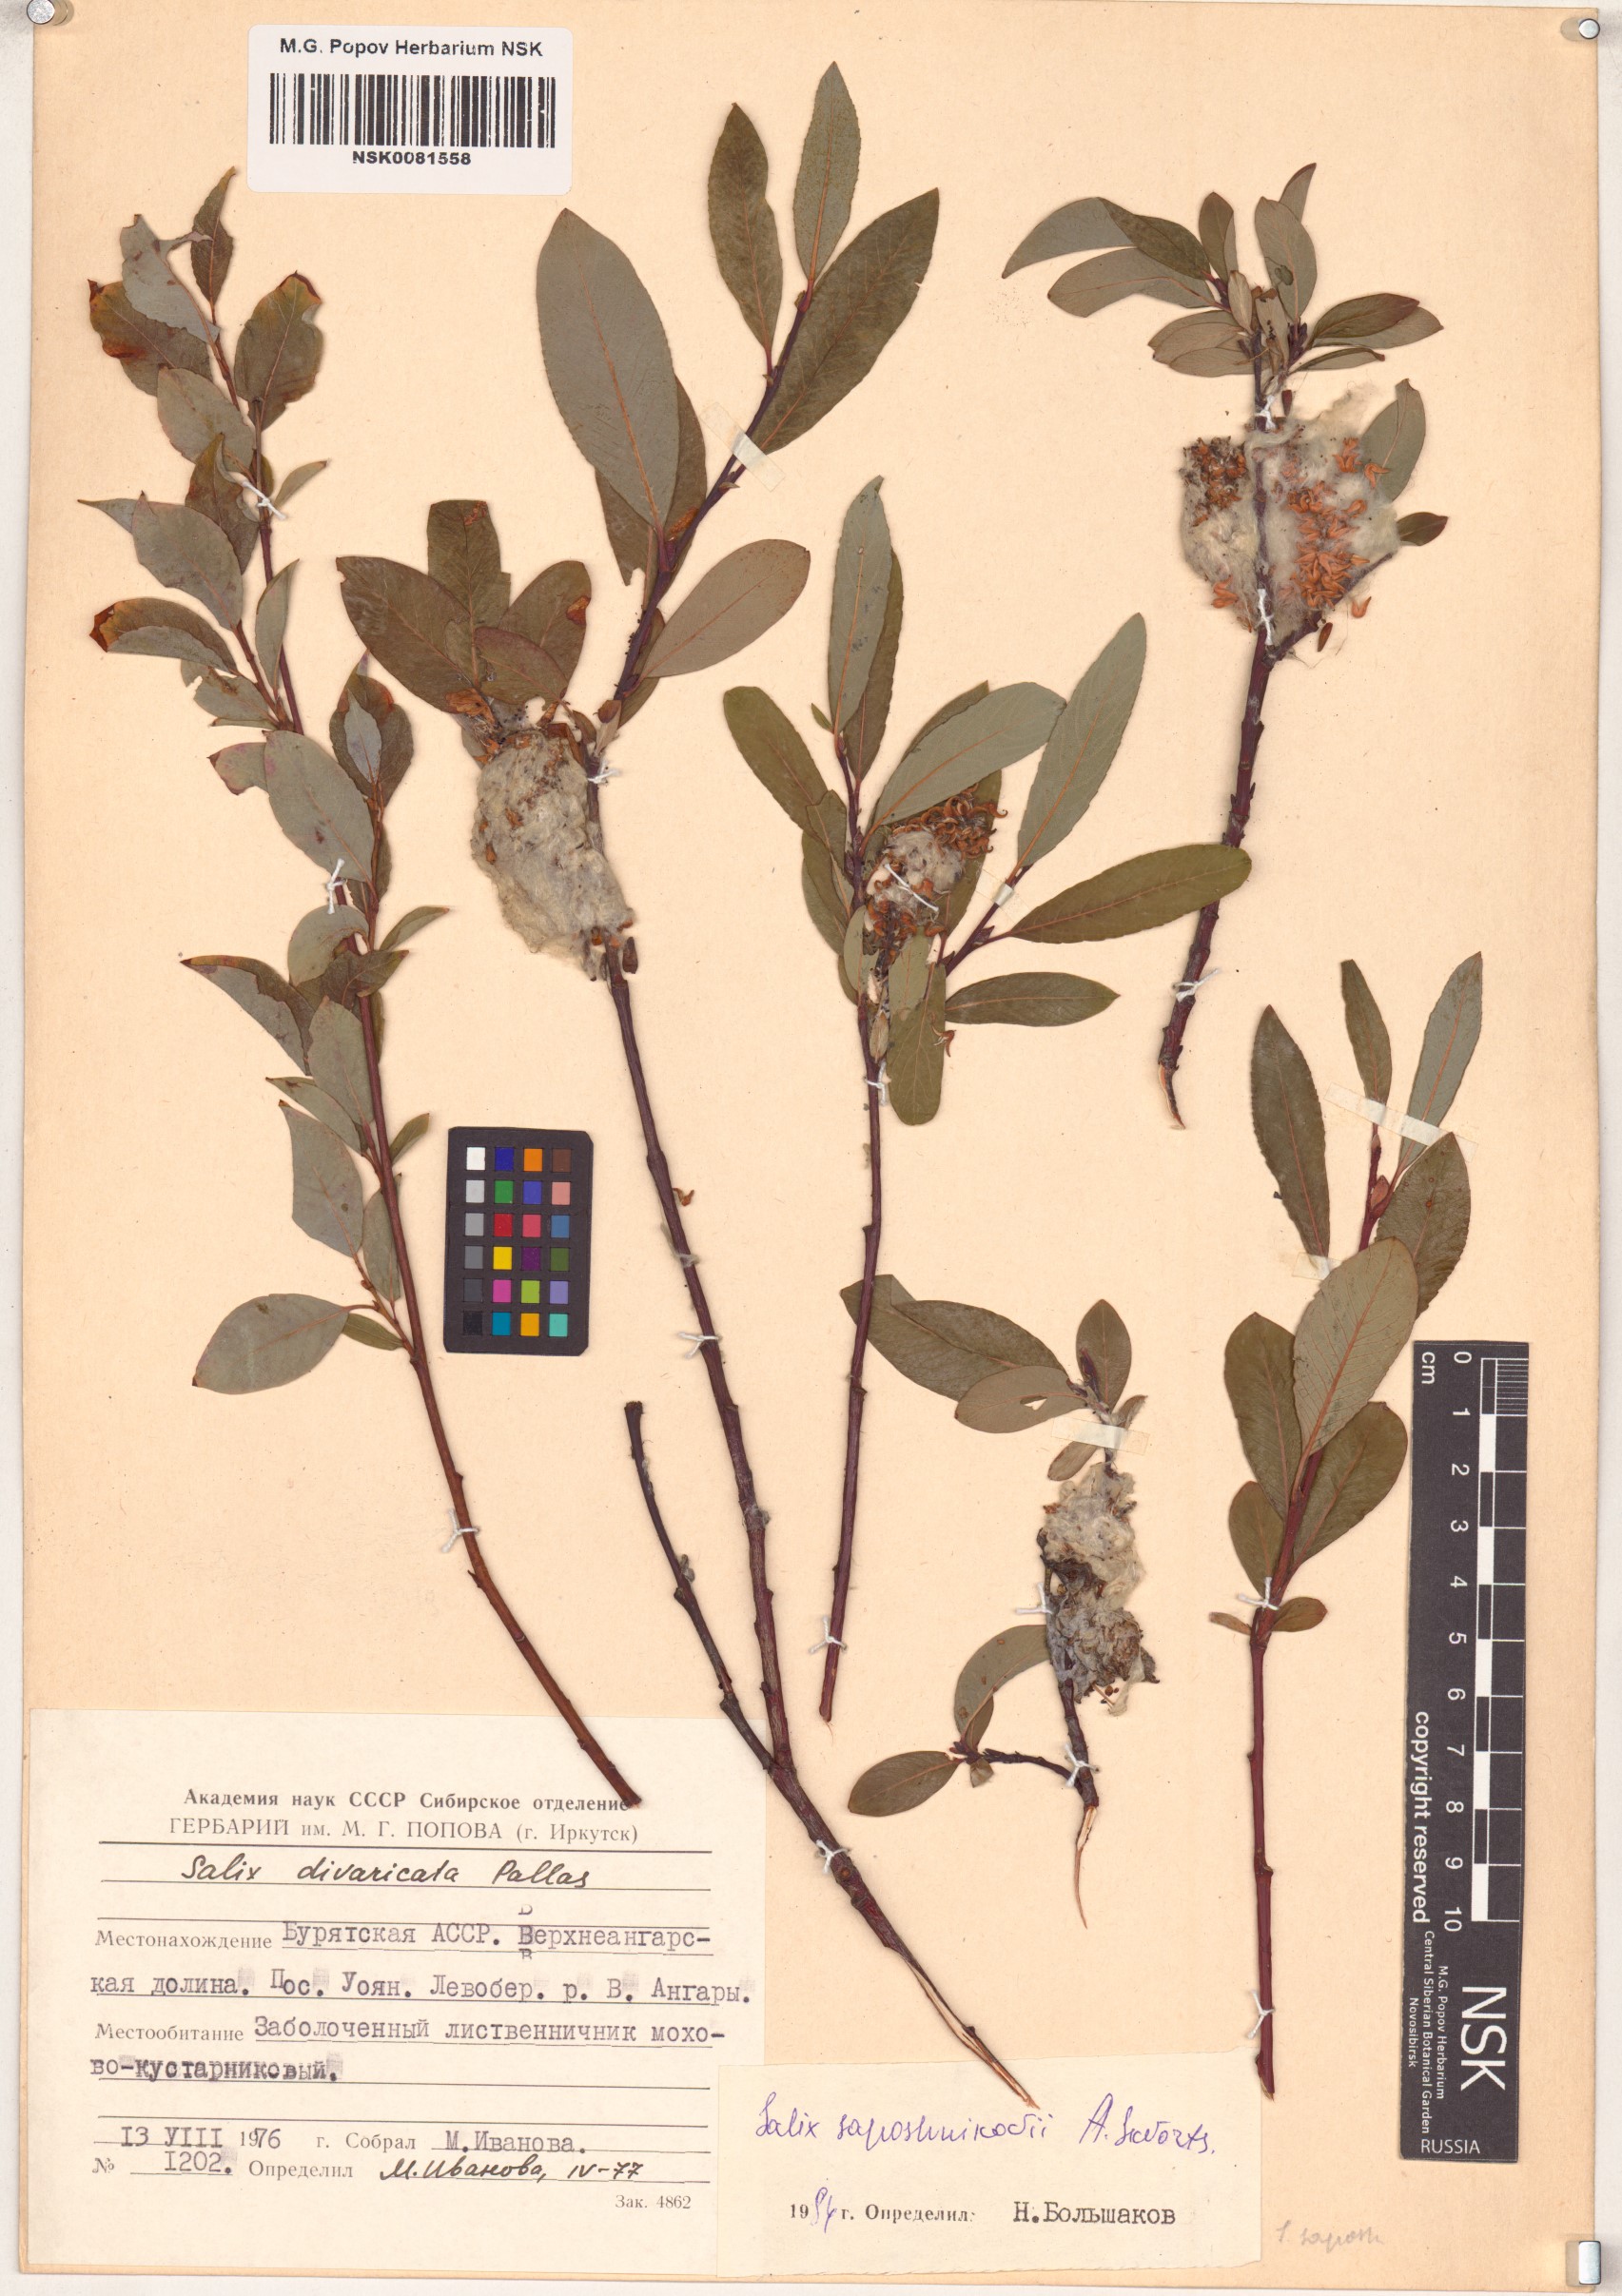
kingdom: Plantae
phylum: Tracheophyta
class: Magnoliopsida
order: Malpighiales
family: Salicaceae
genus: Salix
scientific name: Salix saposhnikovii
